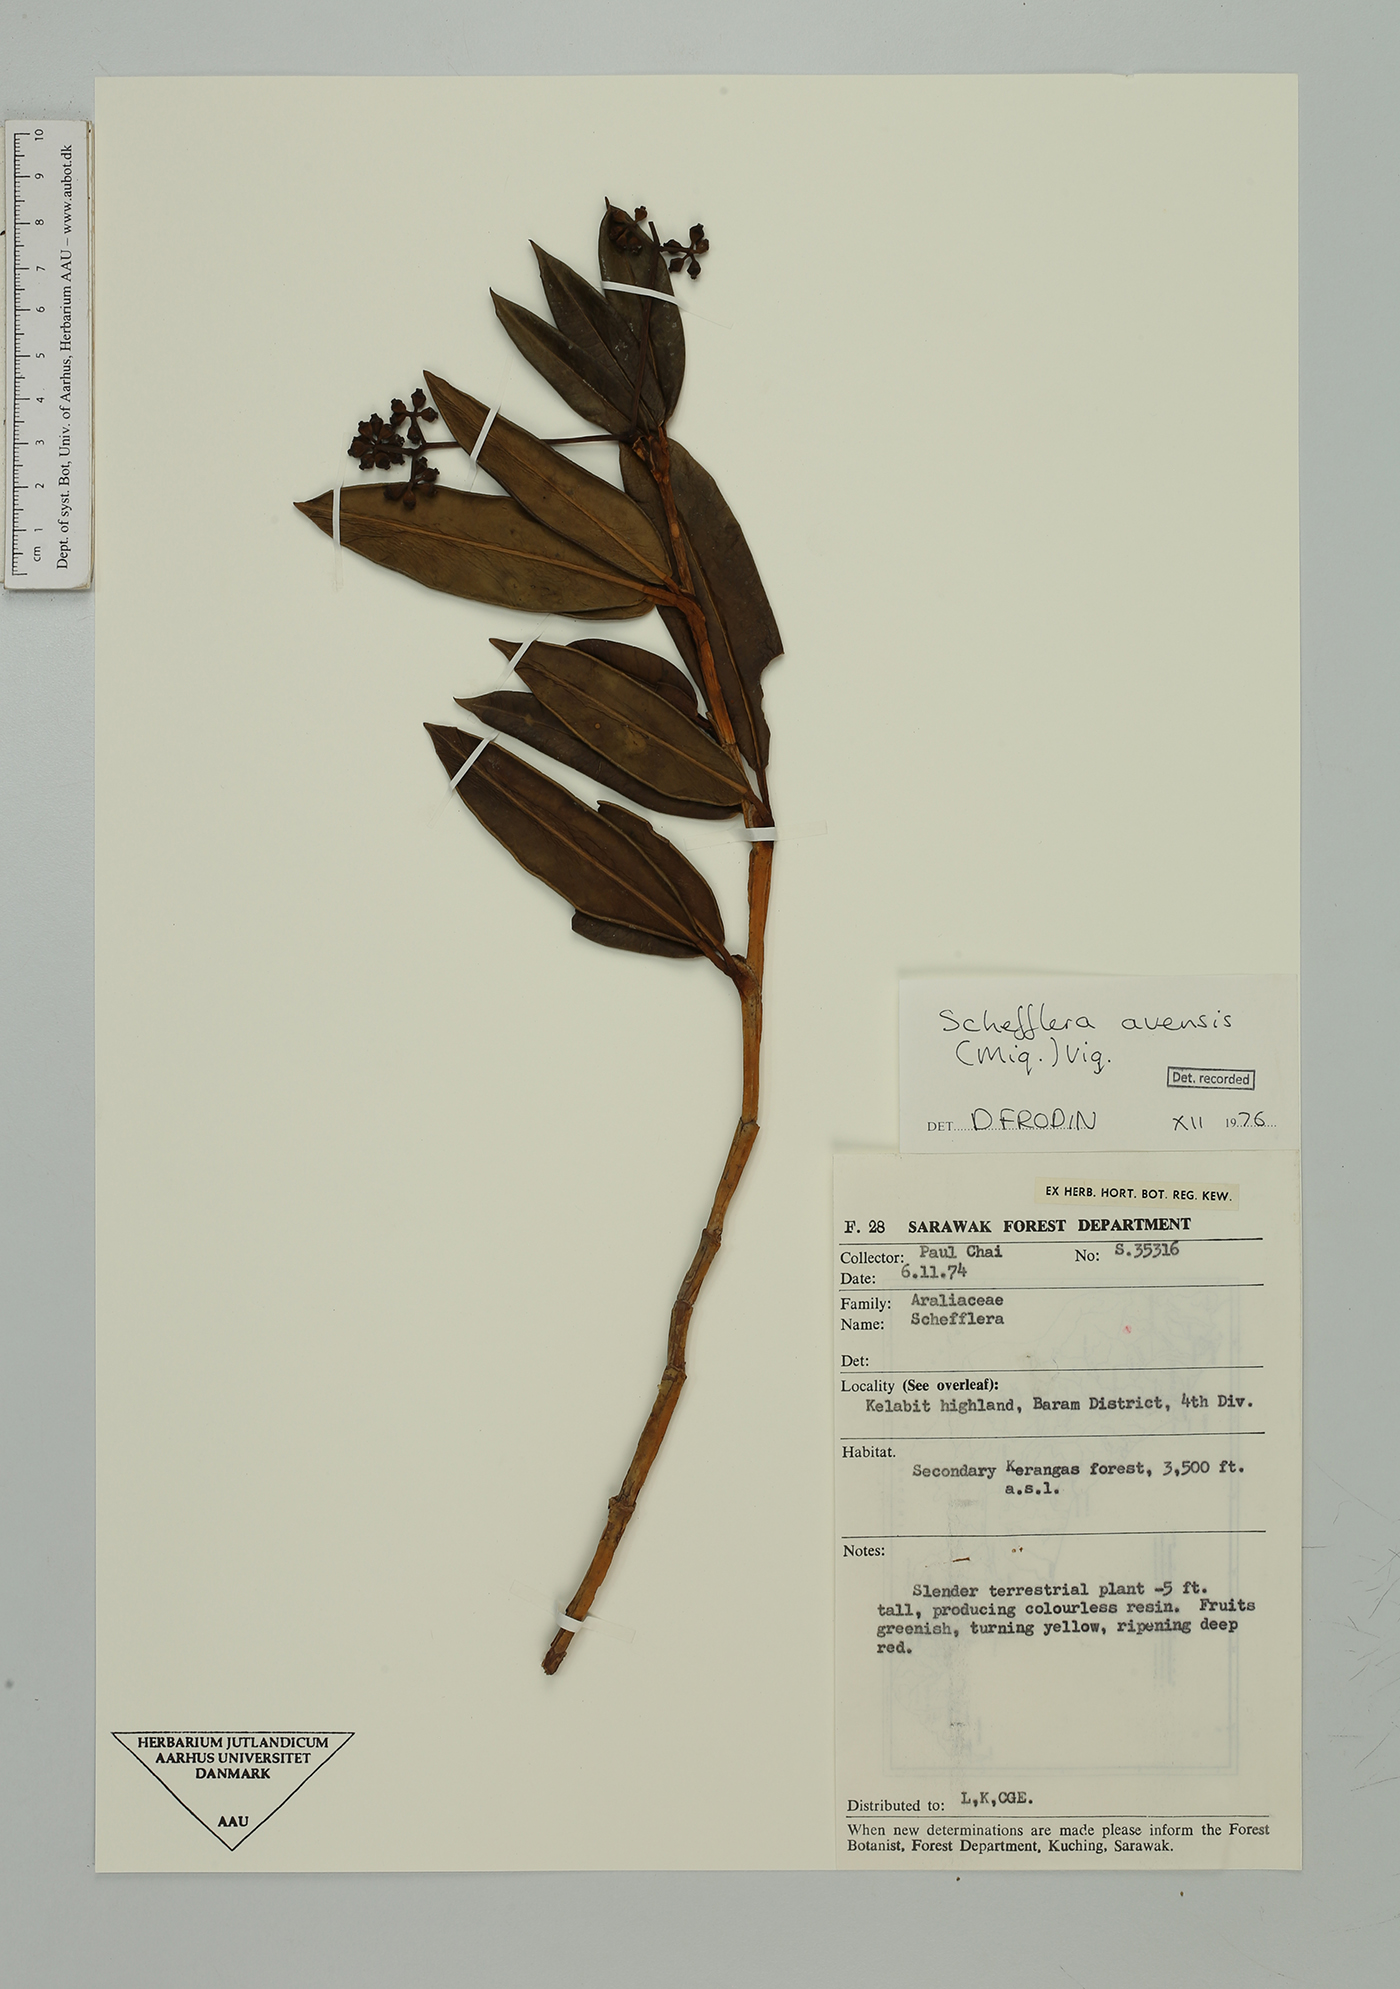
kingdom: Plantae
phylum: Tracheophyta
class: Magnoliopsida
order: Apiales
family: Araliaceae
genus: Heptapleurum
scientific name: Heptapleurum avene
